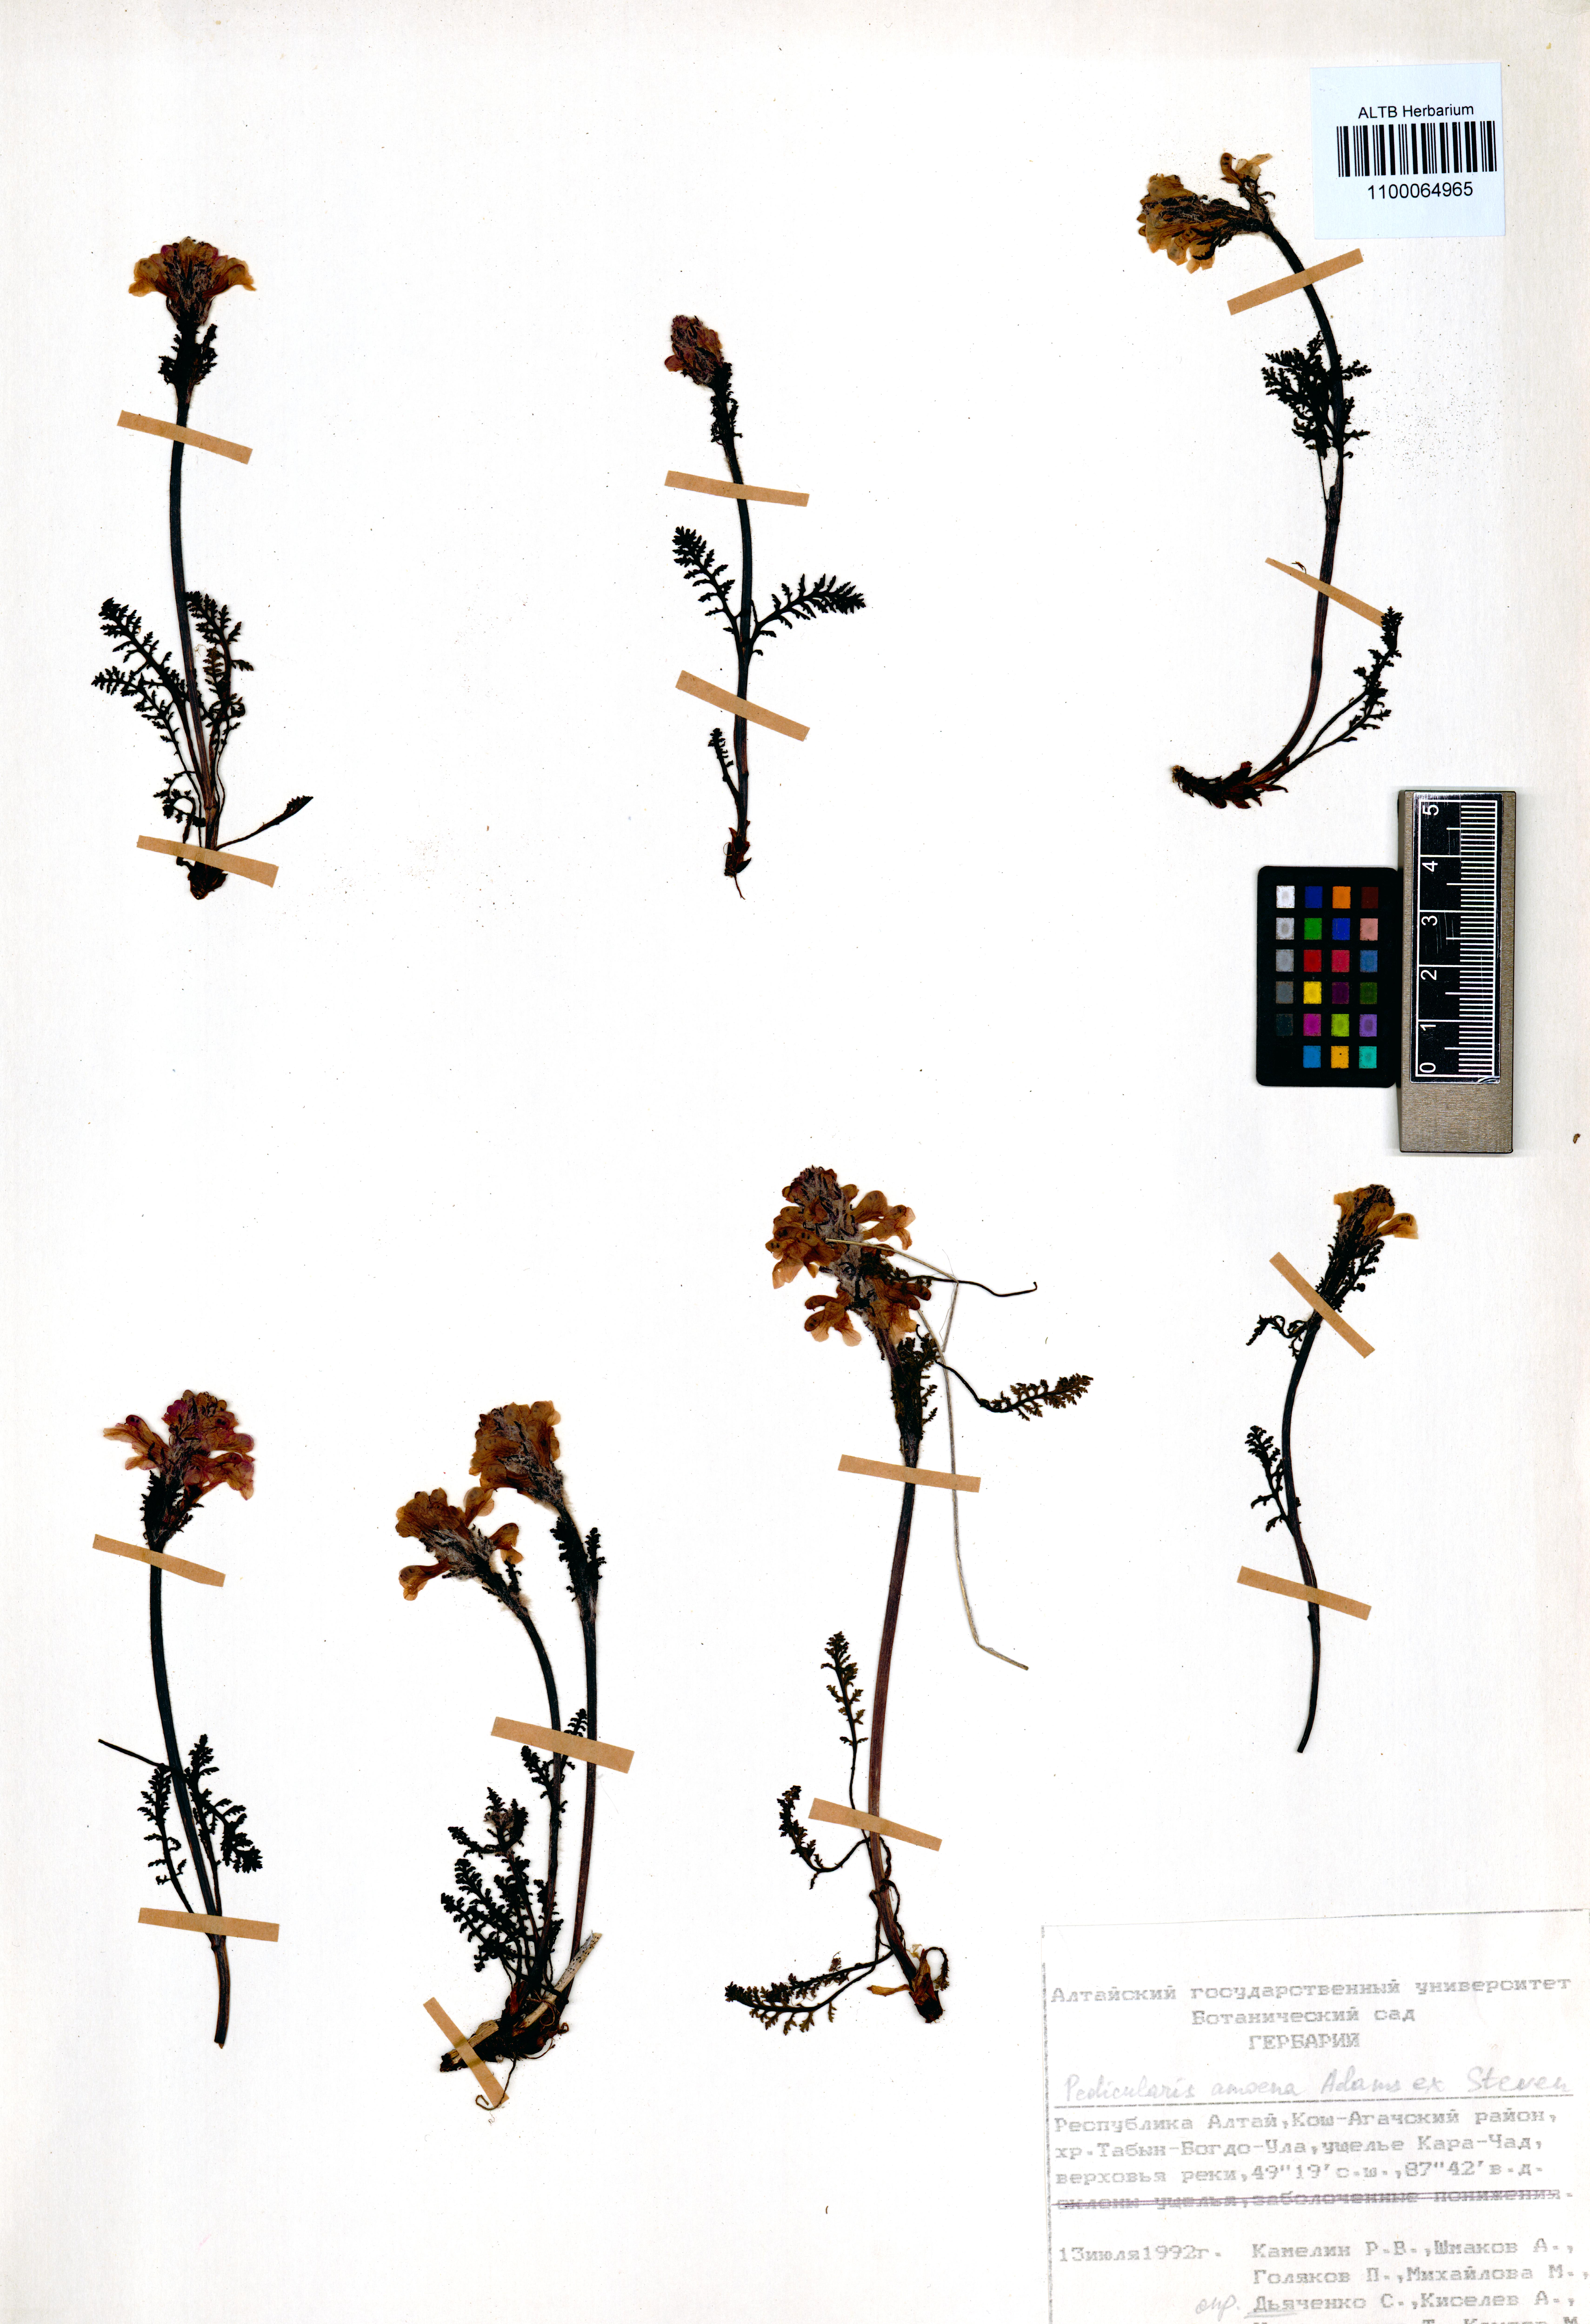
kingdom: Plantae
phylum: Tracheophyta
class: Magnoliopsida
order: Lamiales
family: Orobanchaceae
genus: Pedicularis
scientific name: Pedicularis amoena
